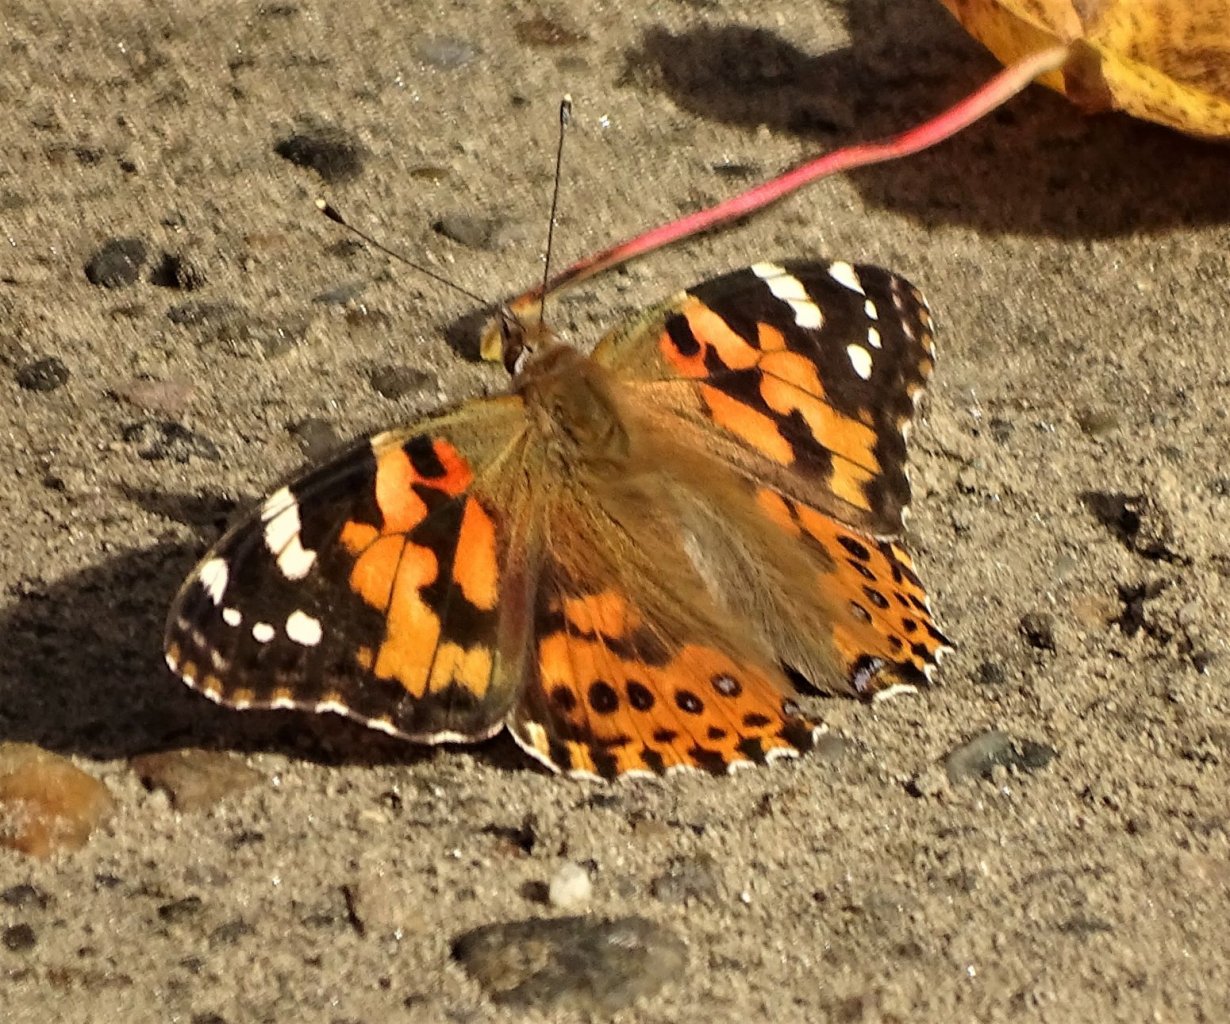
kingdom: Animalia
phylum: Arthropoda
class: Insecta
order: Lepidoptera
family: Nymphalidae
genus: Vanessa
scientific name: Vanessa cardui
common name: Painted Lady
